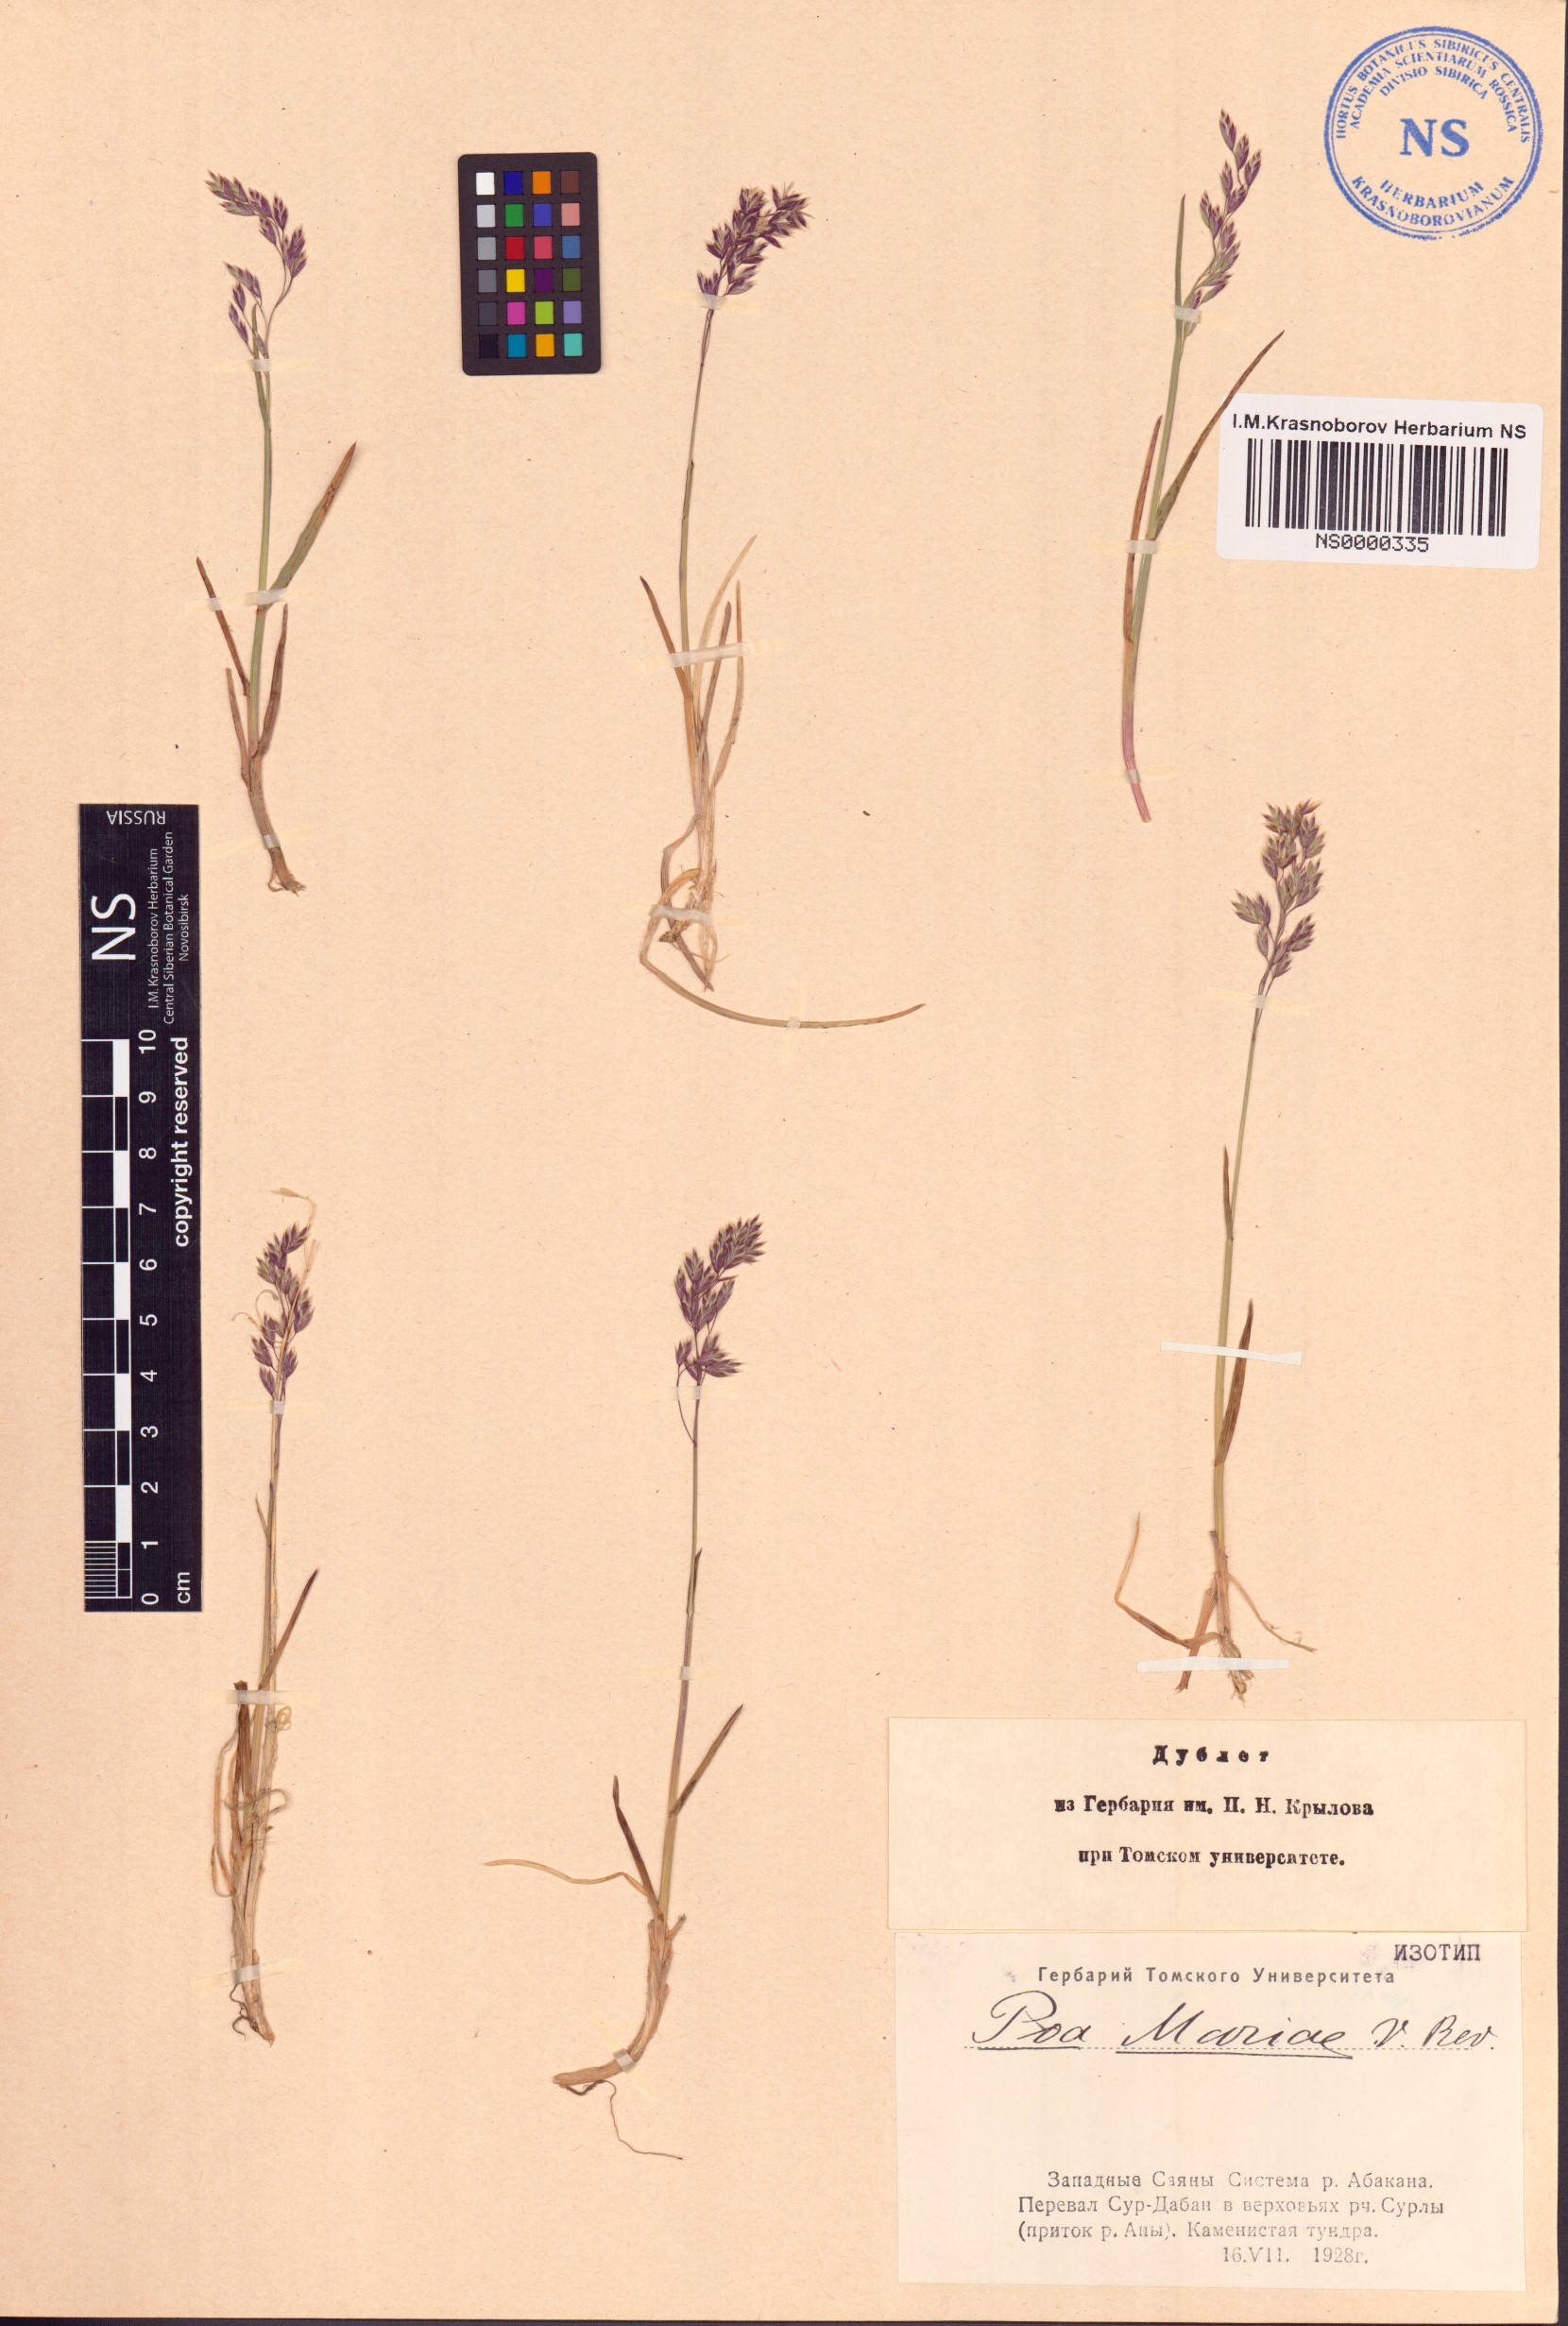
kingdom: Plantae
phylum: Tracheophyta
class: Liliopsida
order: Poales
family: Poaceae
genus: Poa
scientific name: Poa smirnowii
